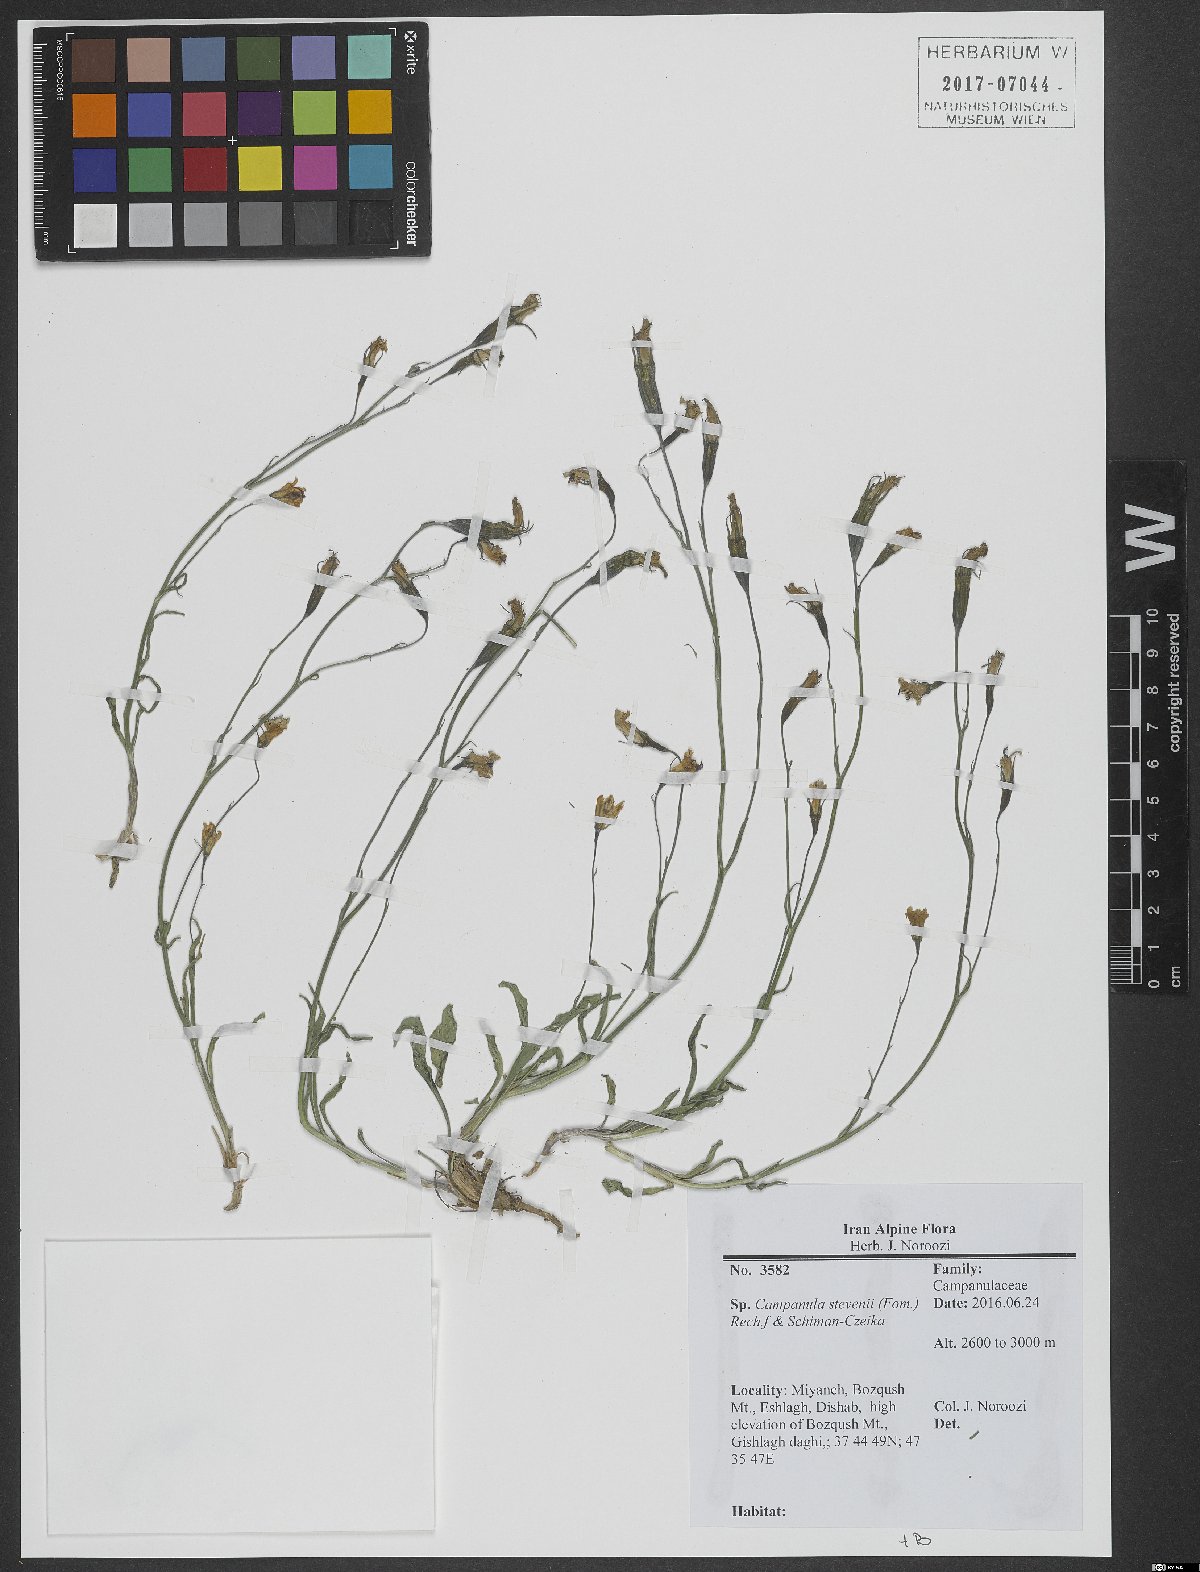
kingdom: Plantae
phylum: Tracheophyta
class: Magnoliopsida
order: Asterales
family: Campanulaceae
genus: Campanula
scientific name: Campanula stevenii
